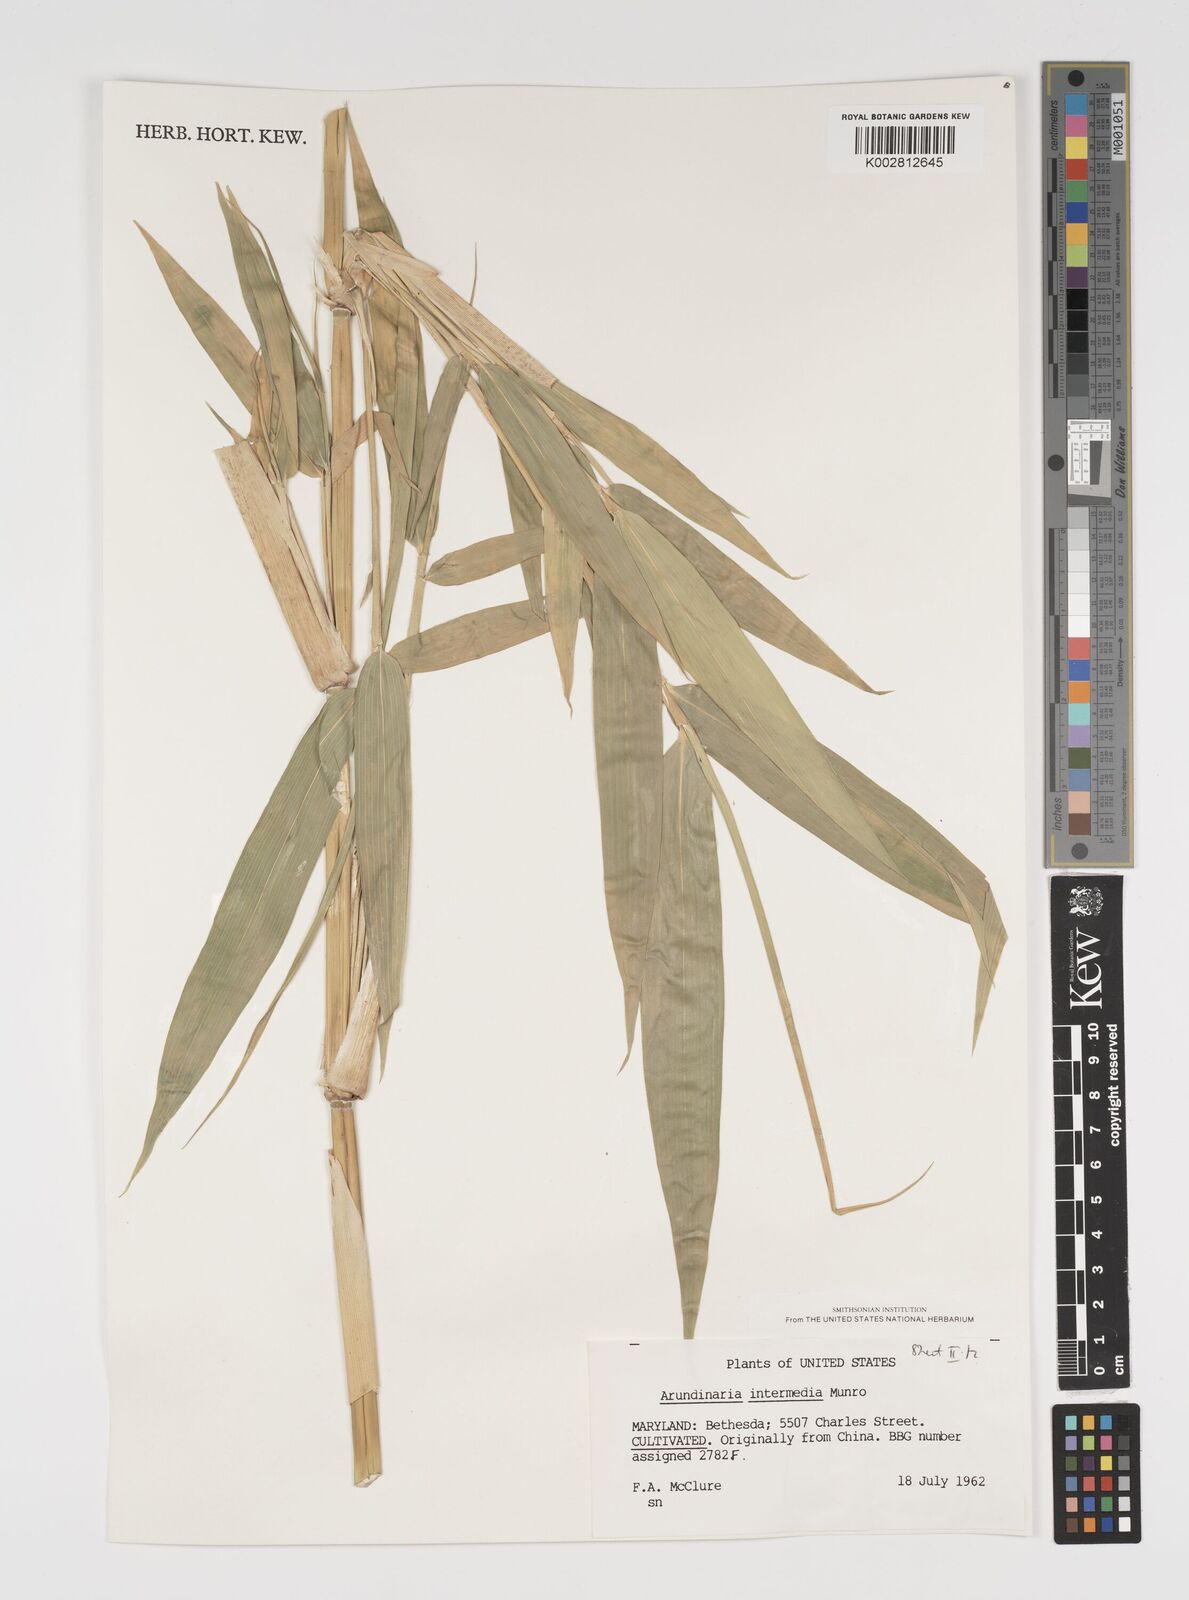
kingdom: Plantae
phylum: Tracheophyta
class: Liliopsida
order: Poales
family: Poaceae
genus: Arundinaria
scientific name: Arundinaria
